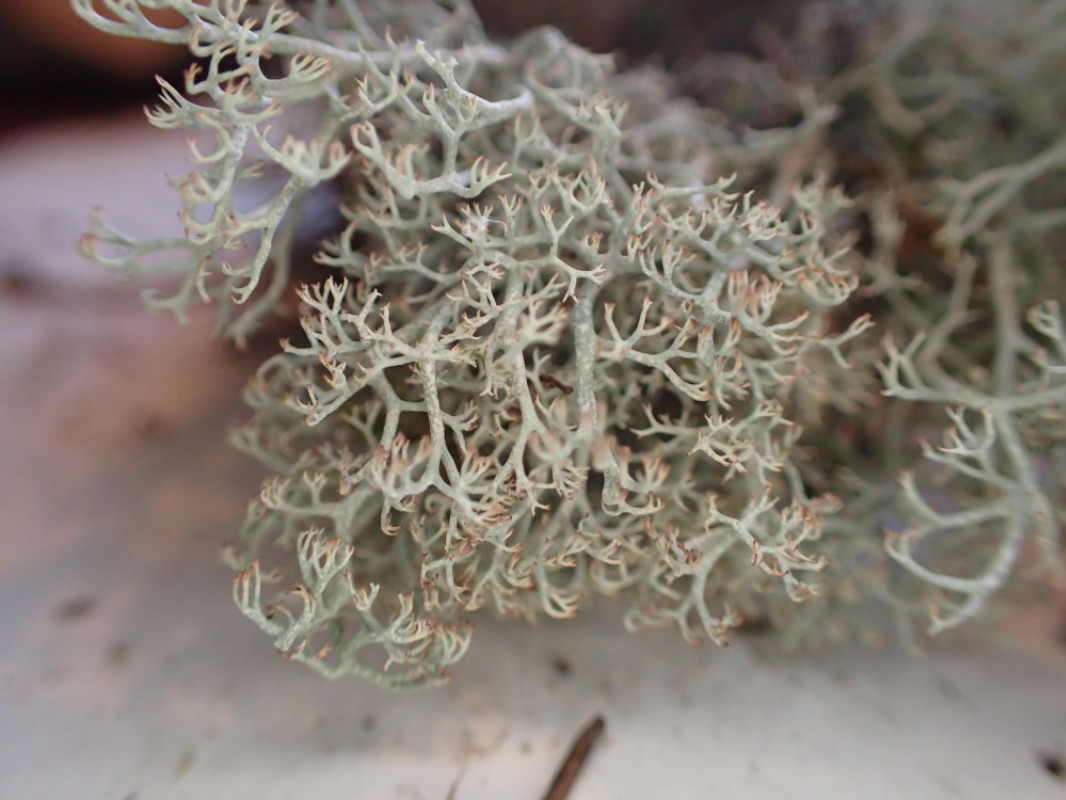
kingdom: Fungi
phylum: Ascomycota
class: Lecanoromycetes
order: Lecanorales
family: Cladoniaceae
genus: Cladonia
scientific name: Cladonia ciliata
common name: spinkel rensdyrlav
